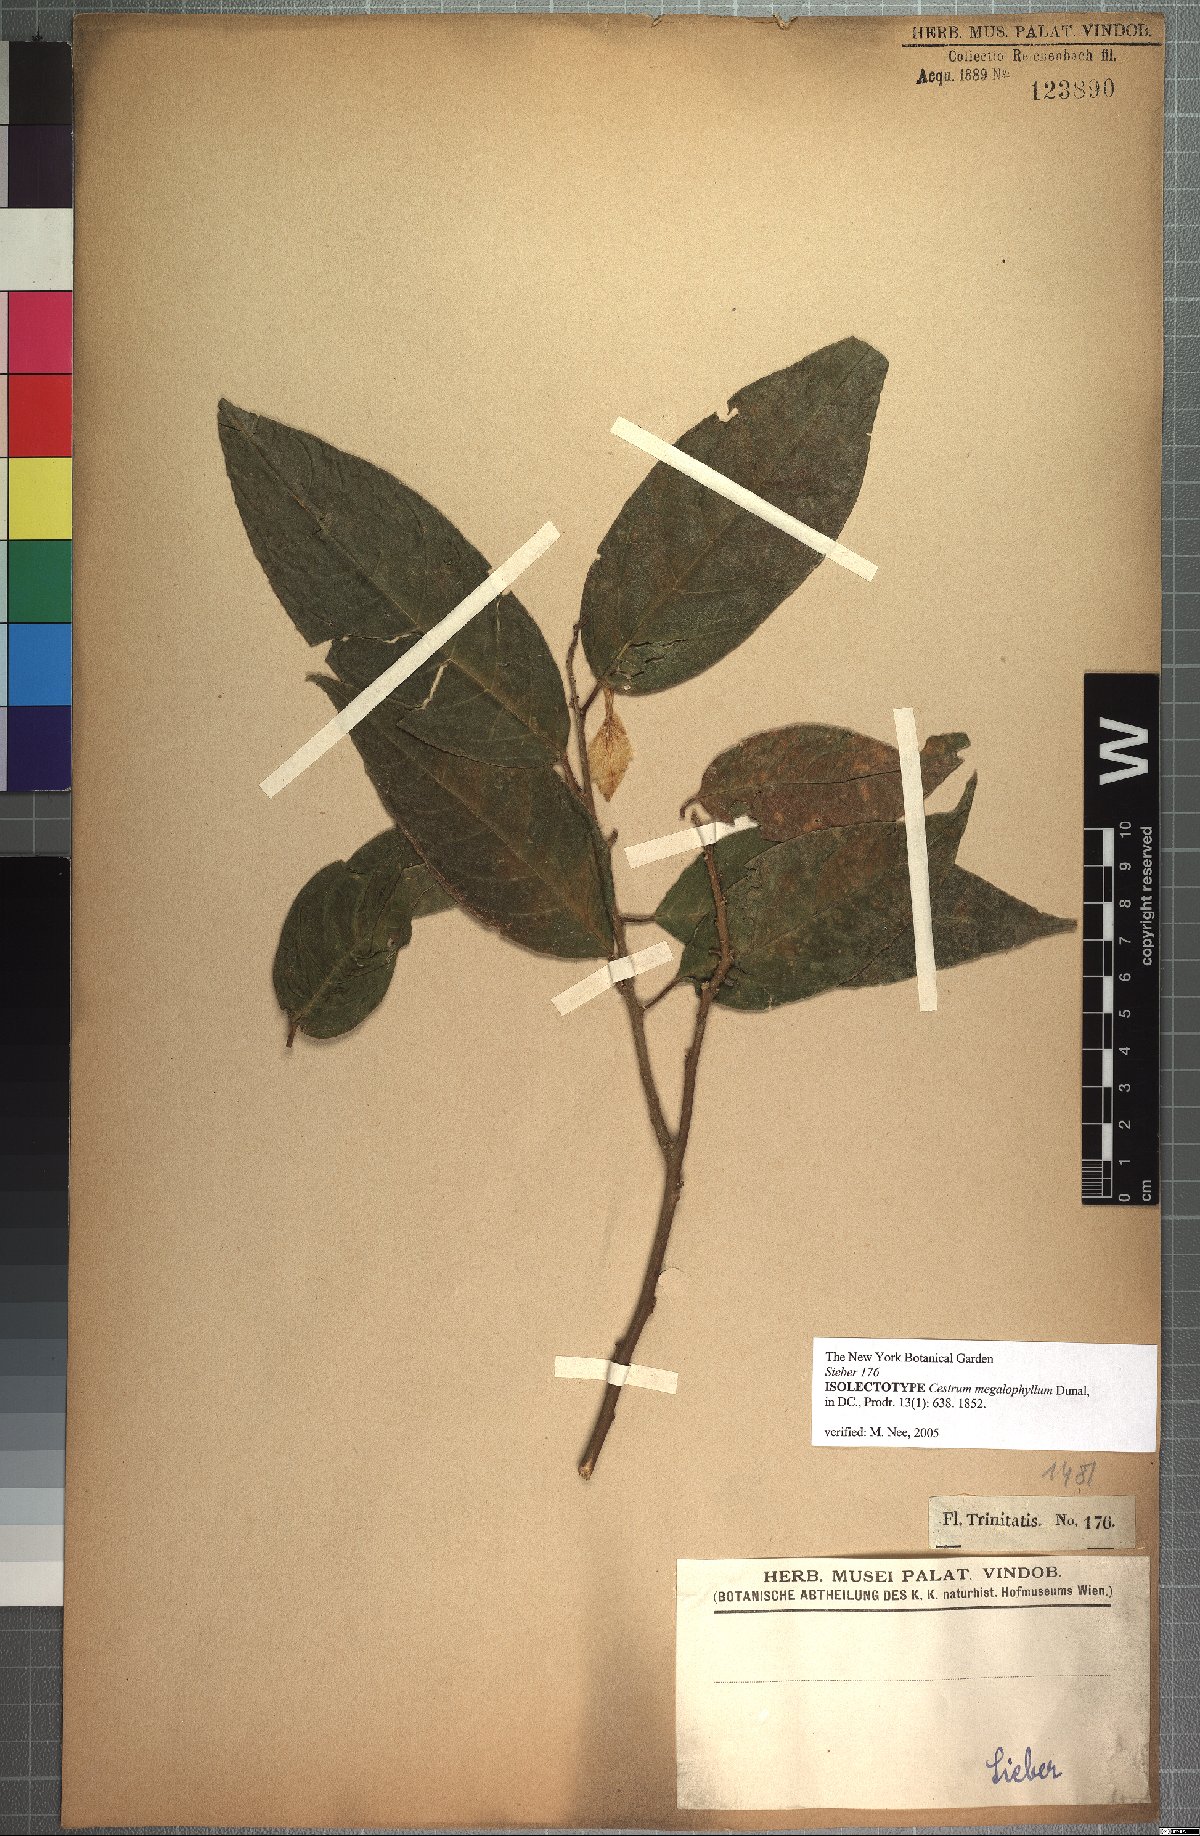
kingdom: Plantae
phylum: Tracheophyta
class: Magnoliopsida
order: Solanales
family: Solanaceae
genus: Cestrum
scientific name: Cestrum megalophyllum
